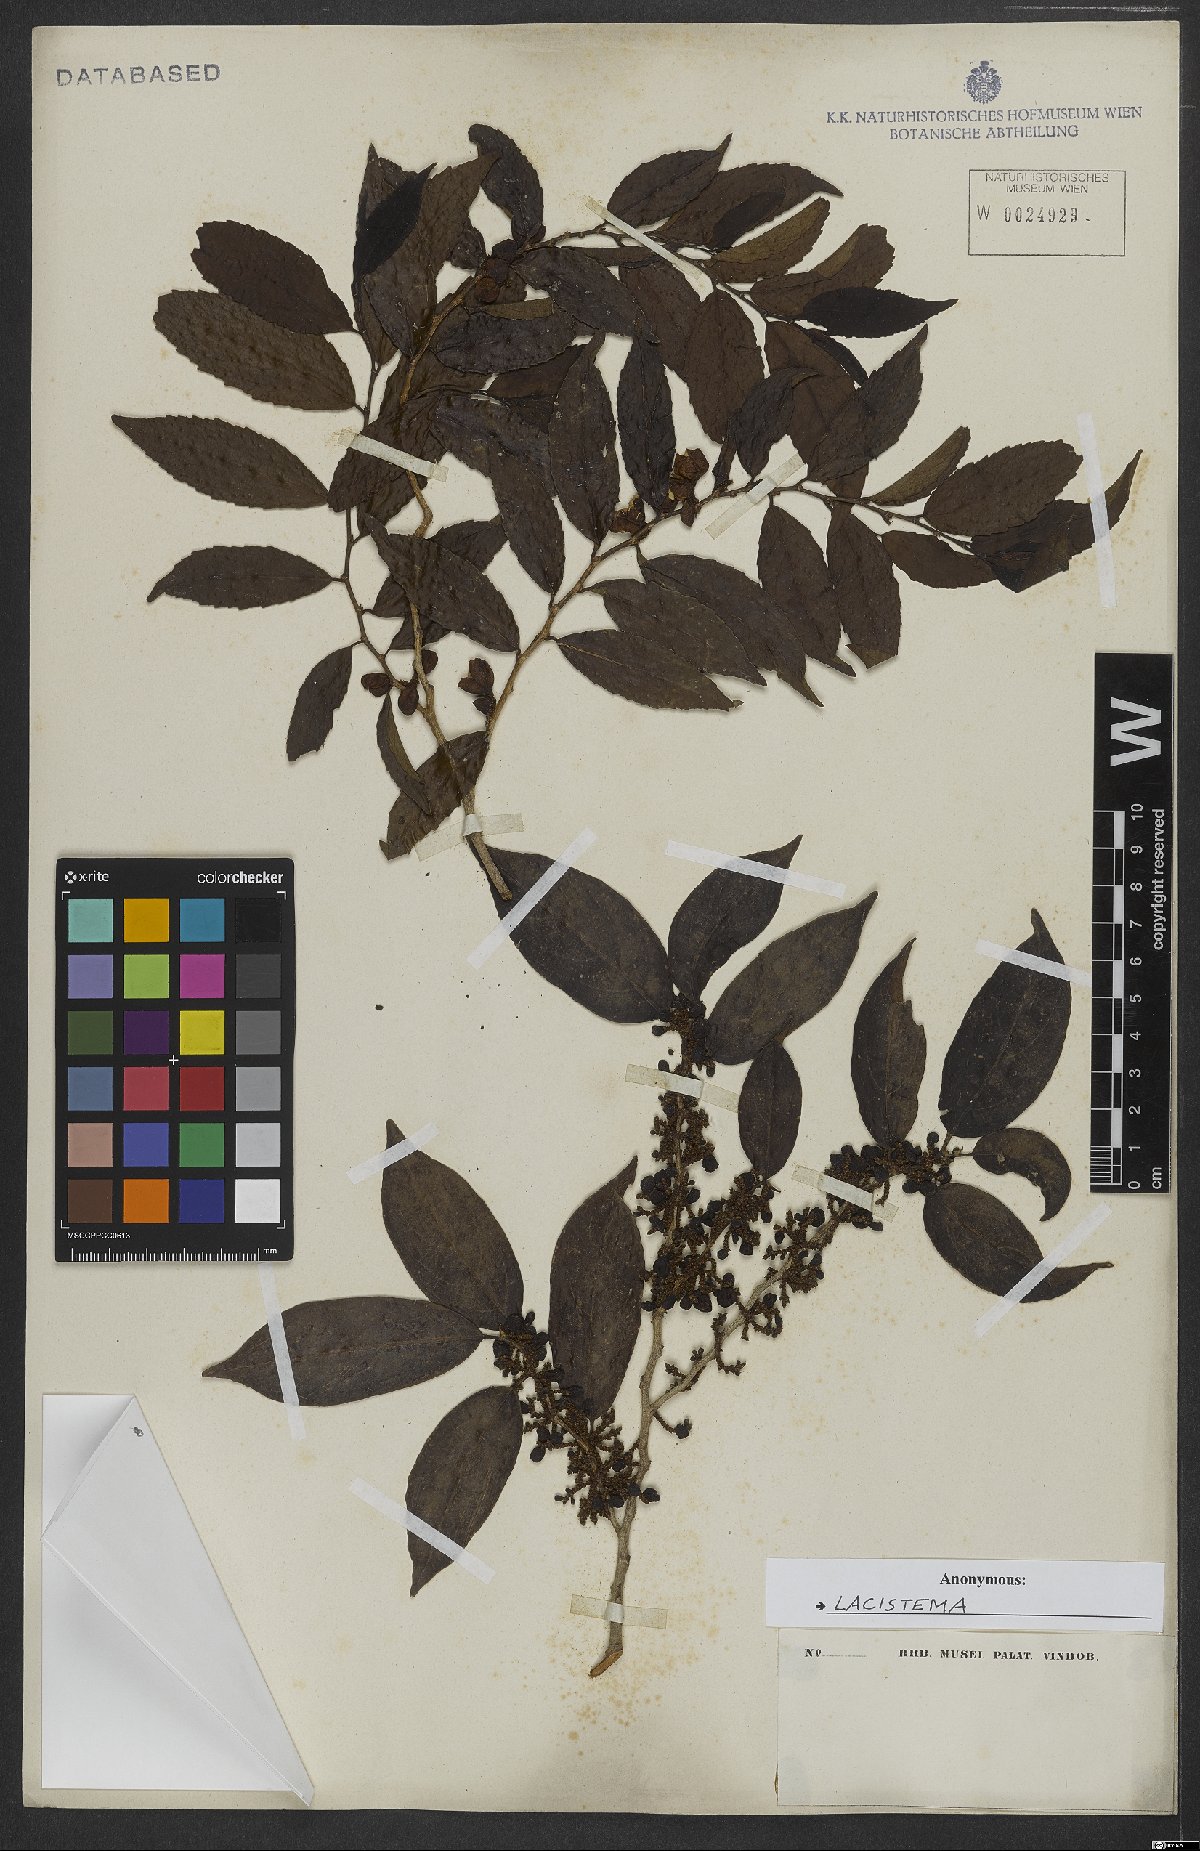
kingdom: Plantae
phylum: Tracheophyta
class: Magnoliopsida
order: Malpighiales
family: Lacistemataceae
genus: Lacistema
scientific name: Lacistema
